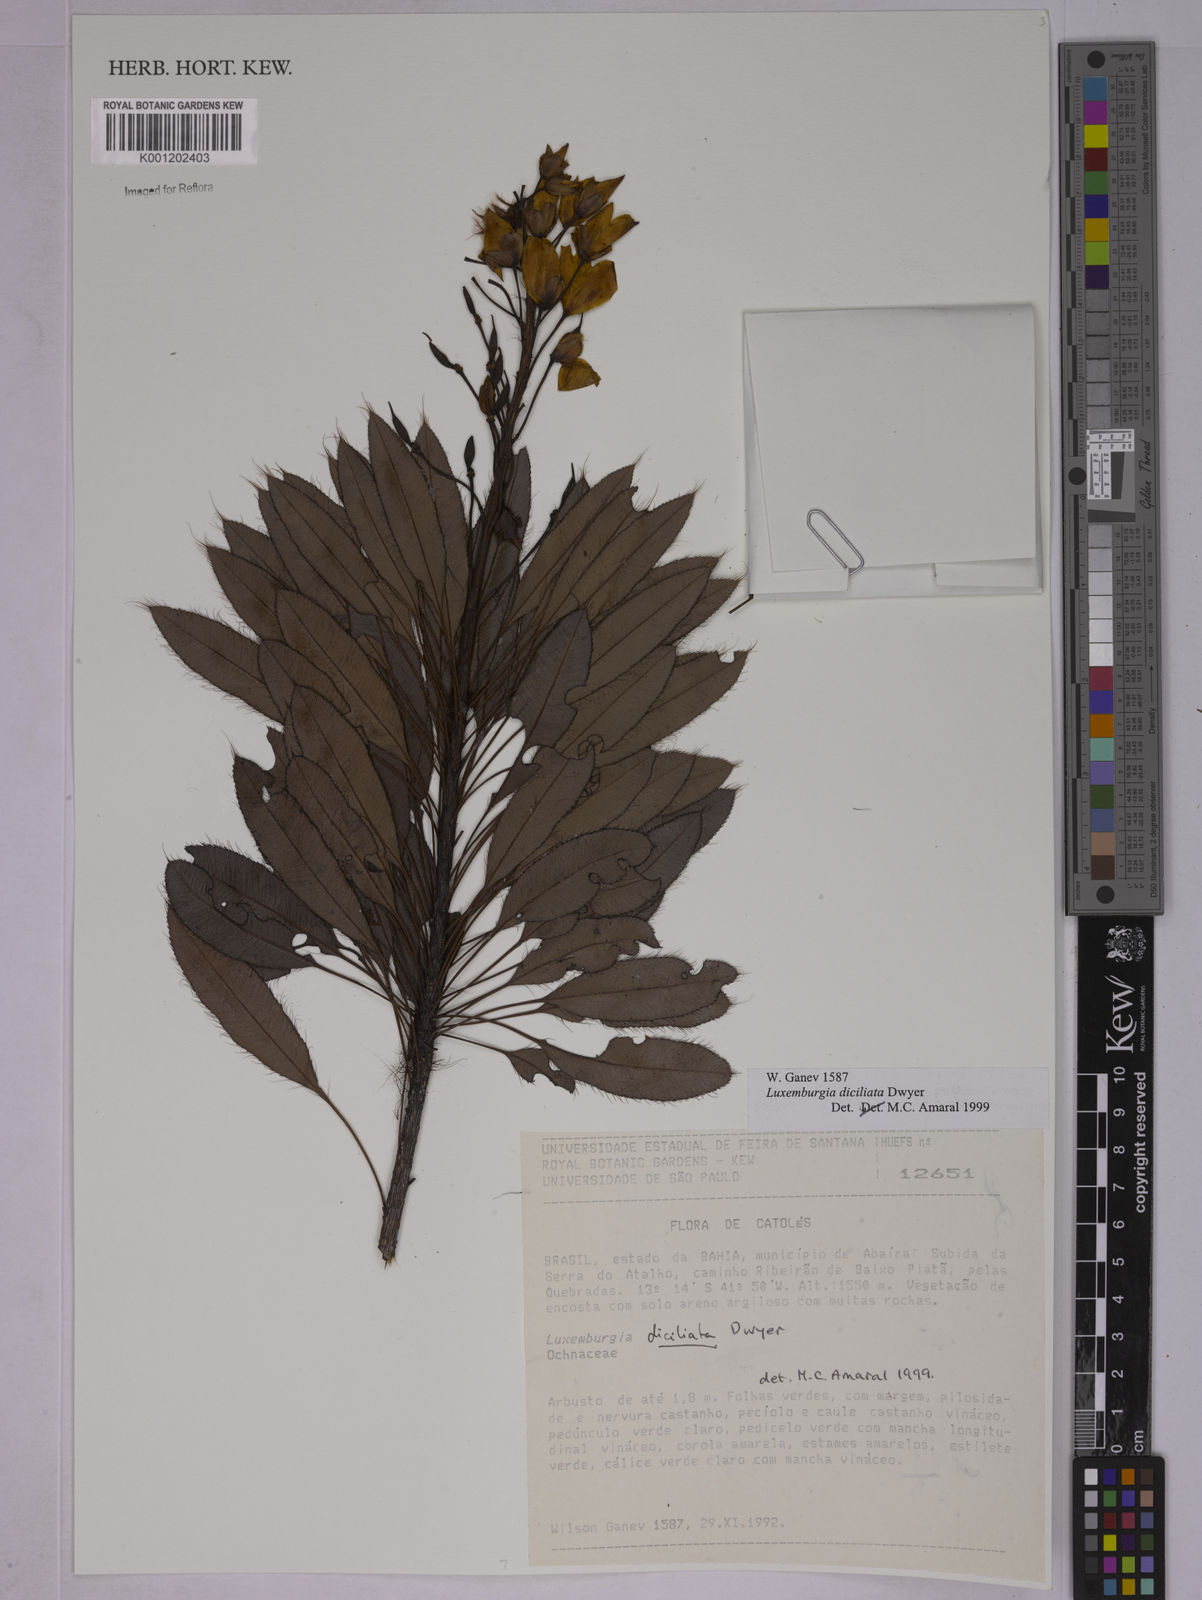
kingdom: Plantae
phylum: Tracheophyta
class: Magnoliopsida
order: Malpighiales
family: Ochnaceae
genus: Luxemburgia
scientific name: Luxemburgia diciliata
